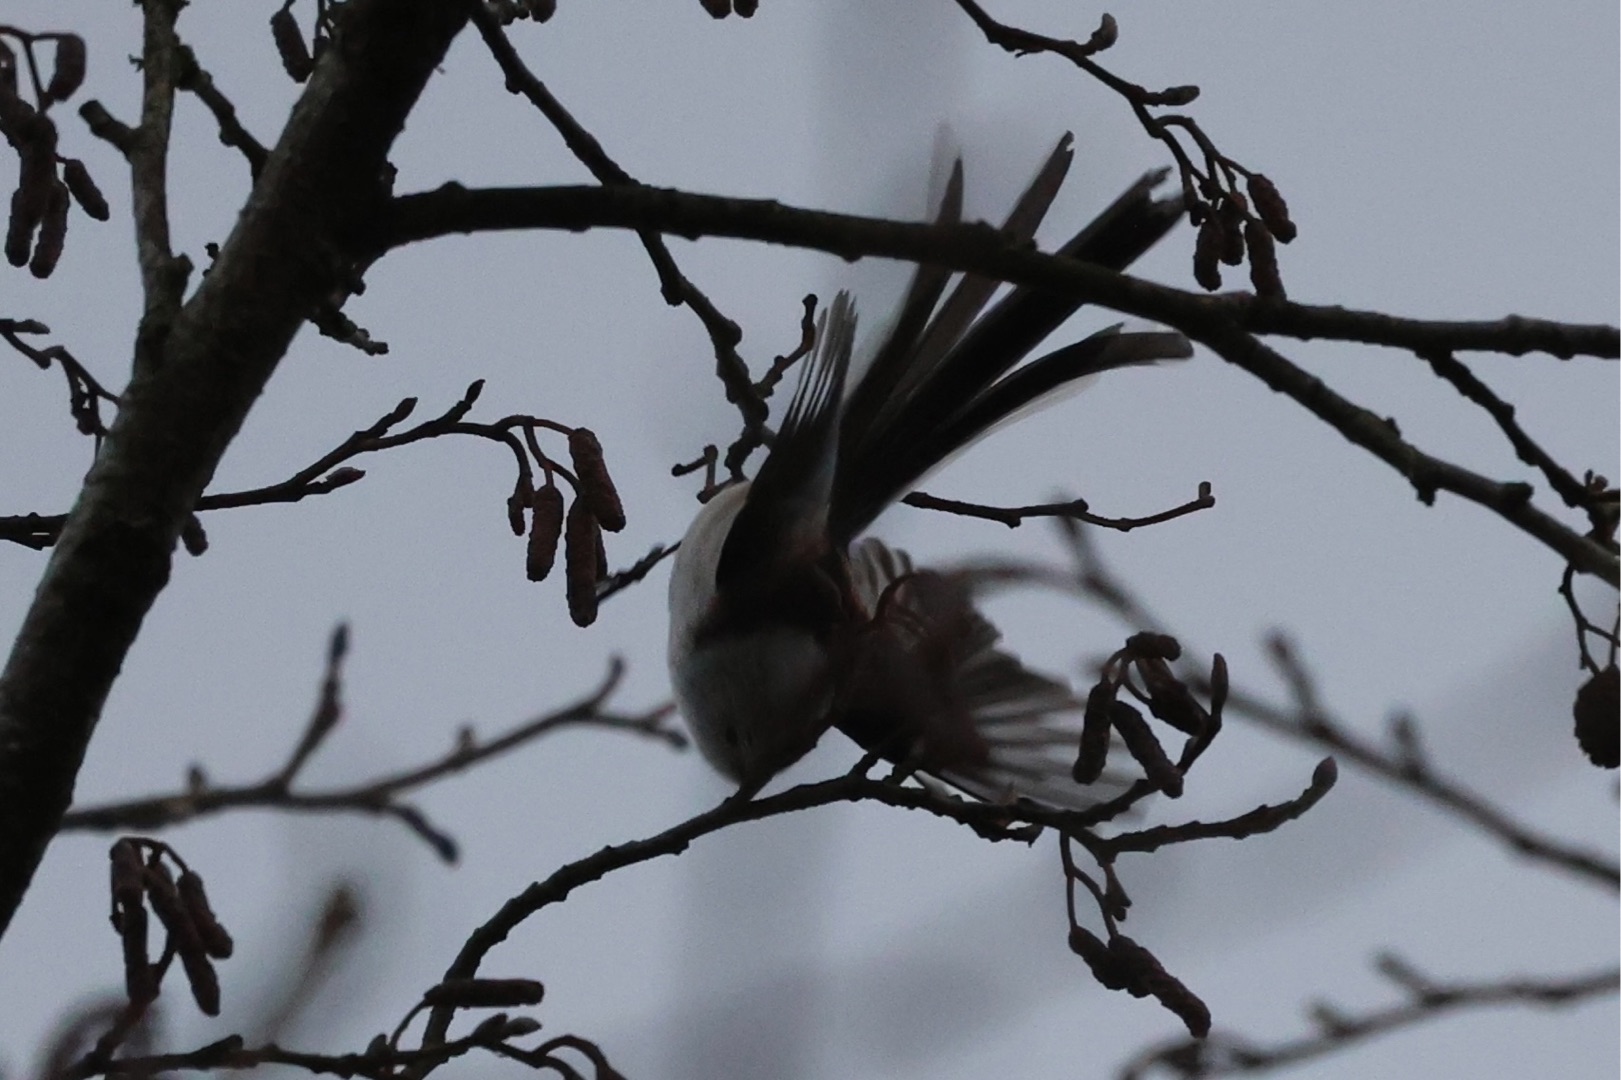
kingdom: Animalia
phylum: Chordata
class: Aves
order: Passeriformes
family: Aegithalidae
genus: Aegithalos
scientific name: Aegithalos caudatus
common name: Nordlig halemejse
